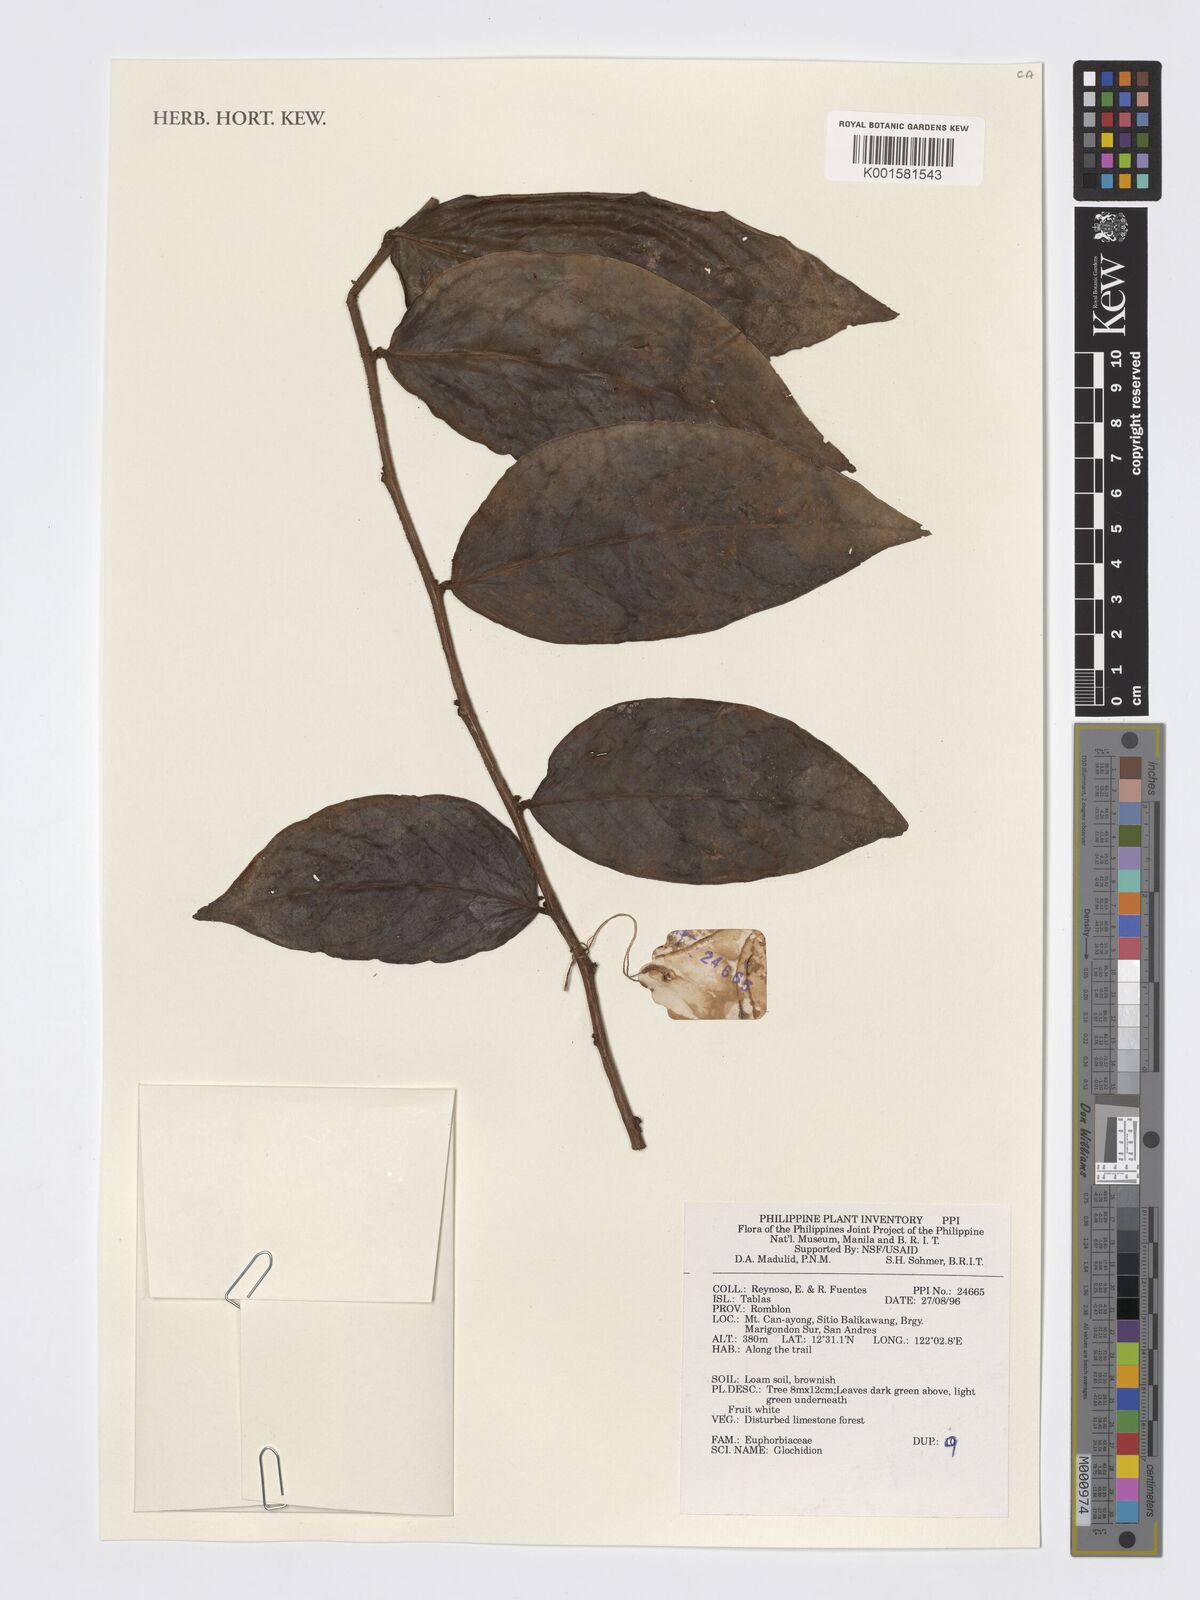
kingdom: Plantae
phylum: Tracheophyta
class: Magnoliopsida
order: Malpighiales
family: Phyllanthaceae
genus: Glochidion
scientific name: Glochidion
